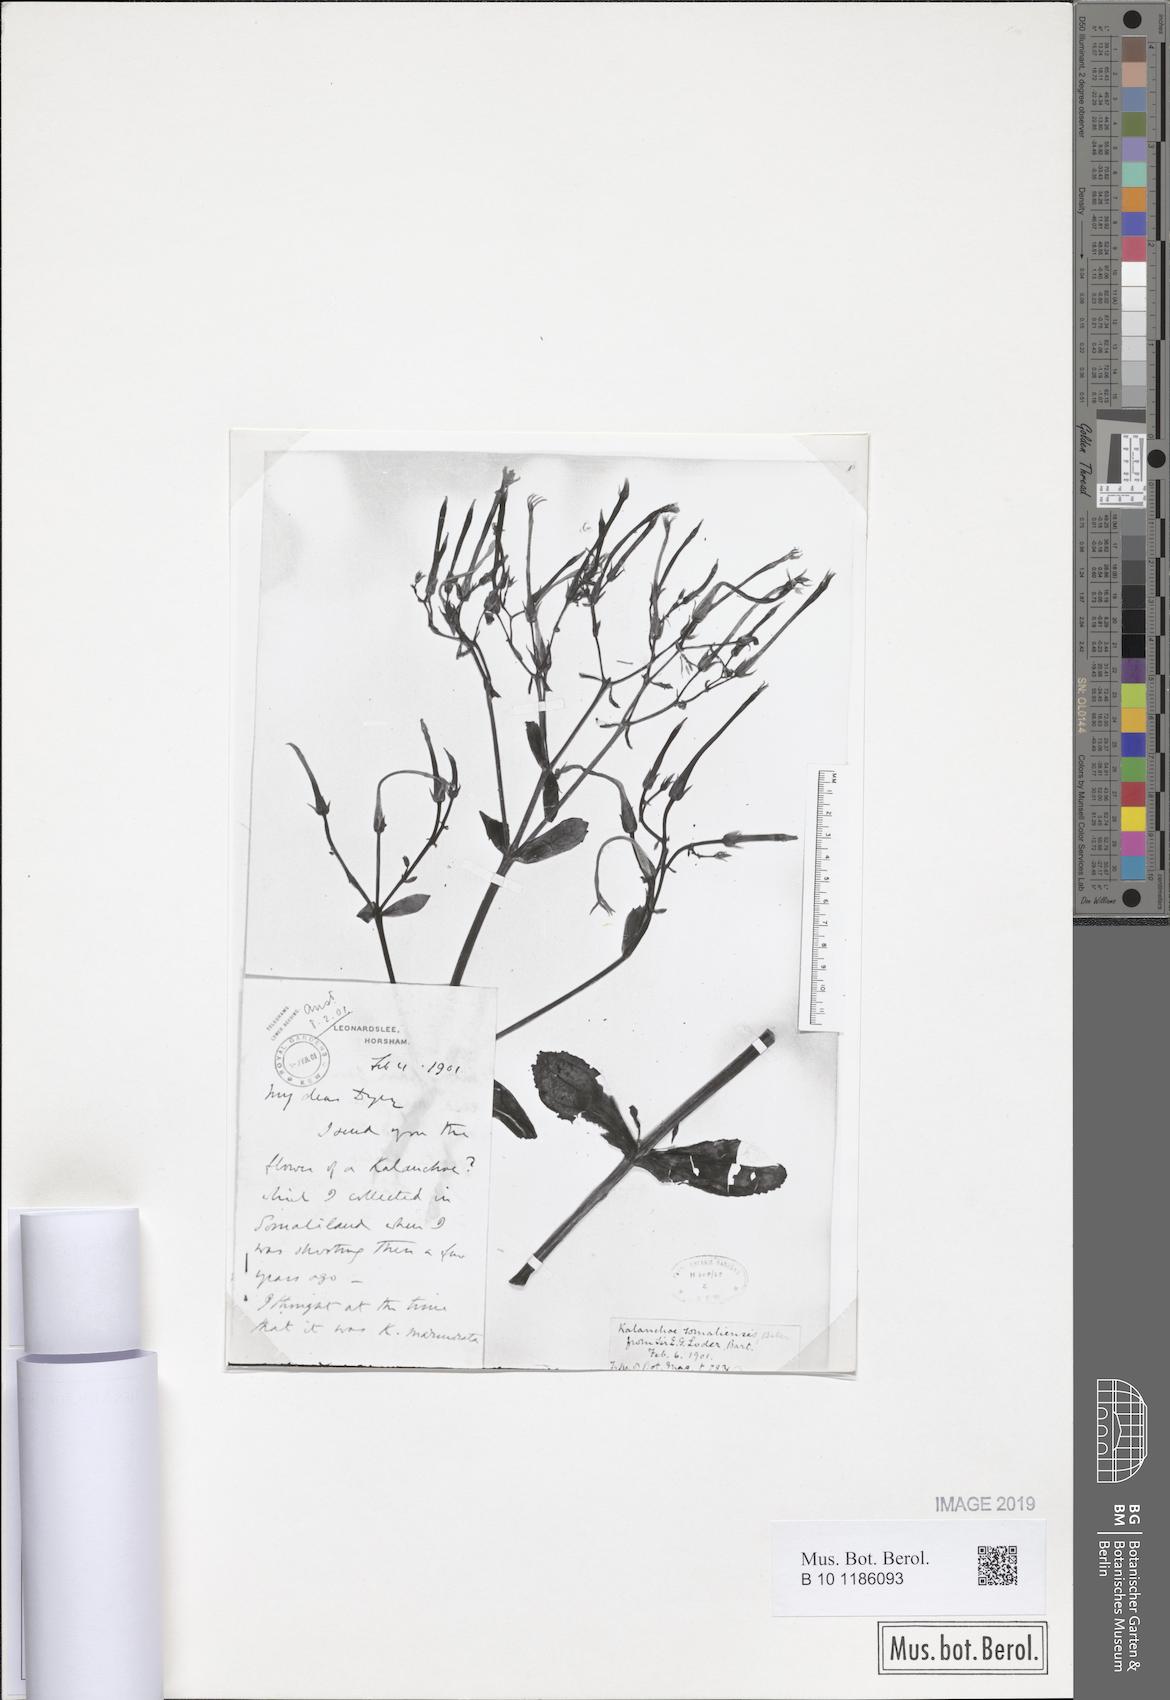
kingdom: Plantae
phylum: Tracheophyta
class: Magnoliopsida
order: Saxifragales
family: Crassulaceae
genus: Kalanchoe
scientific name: Kalanchoe marmorata
